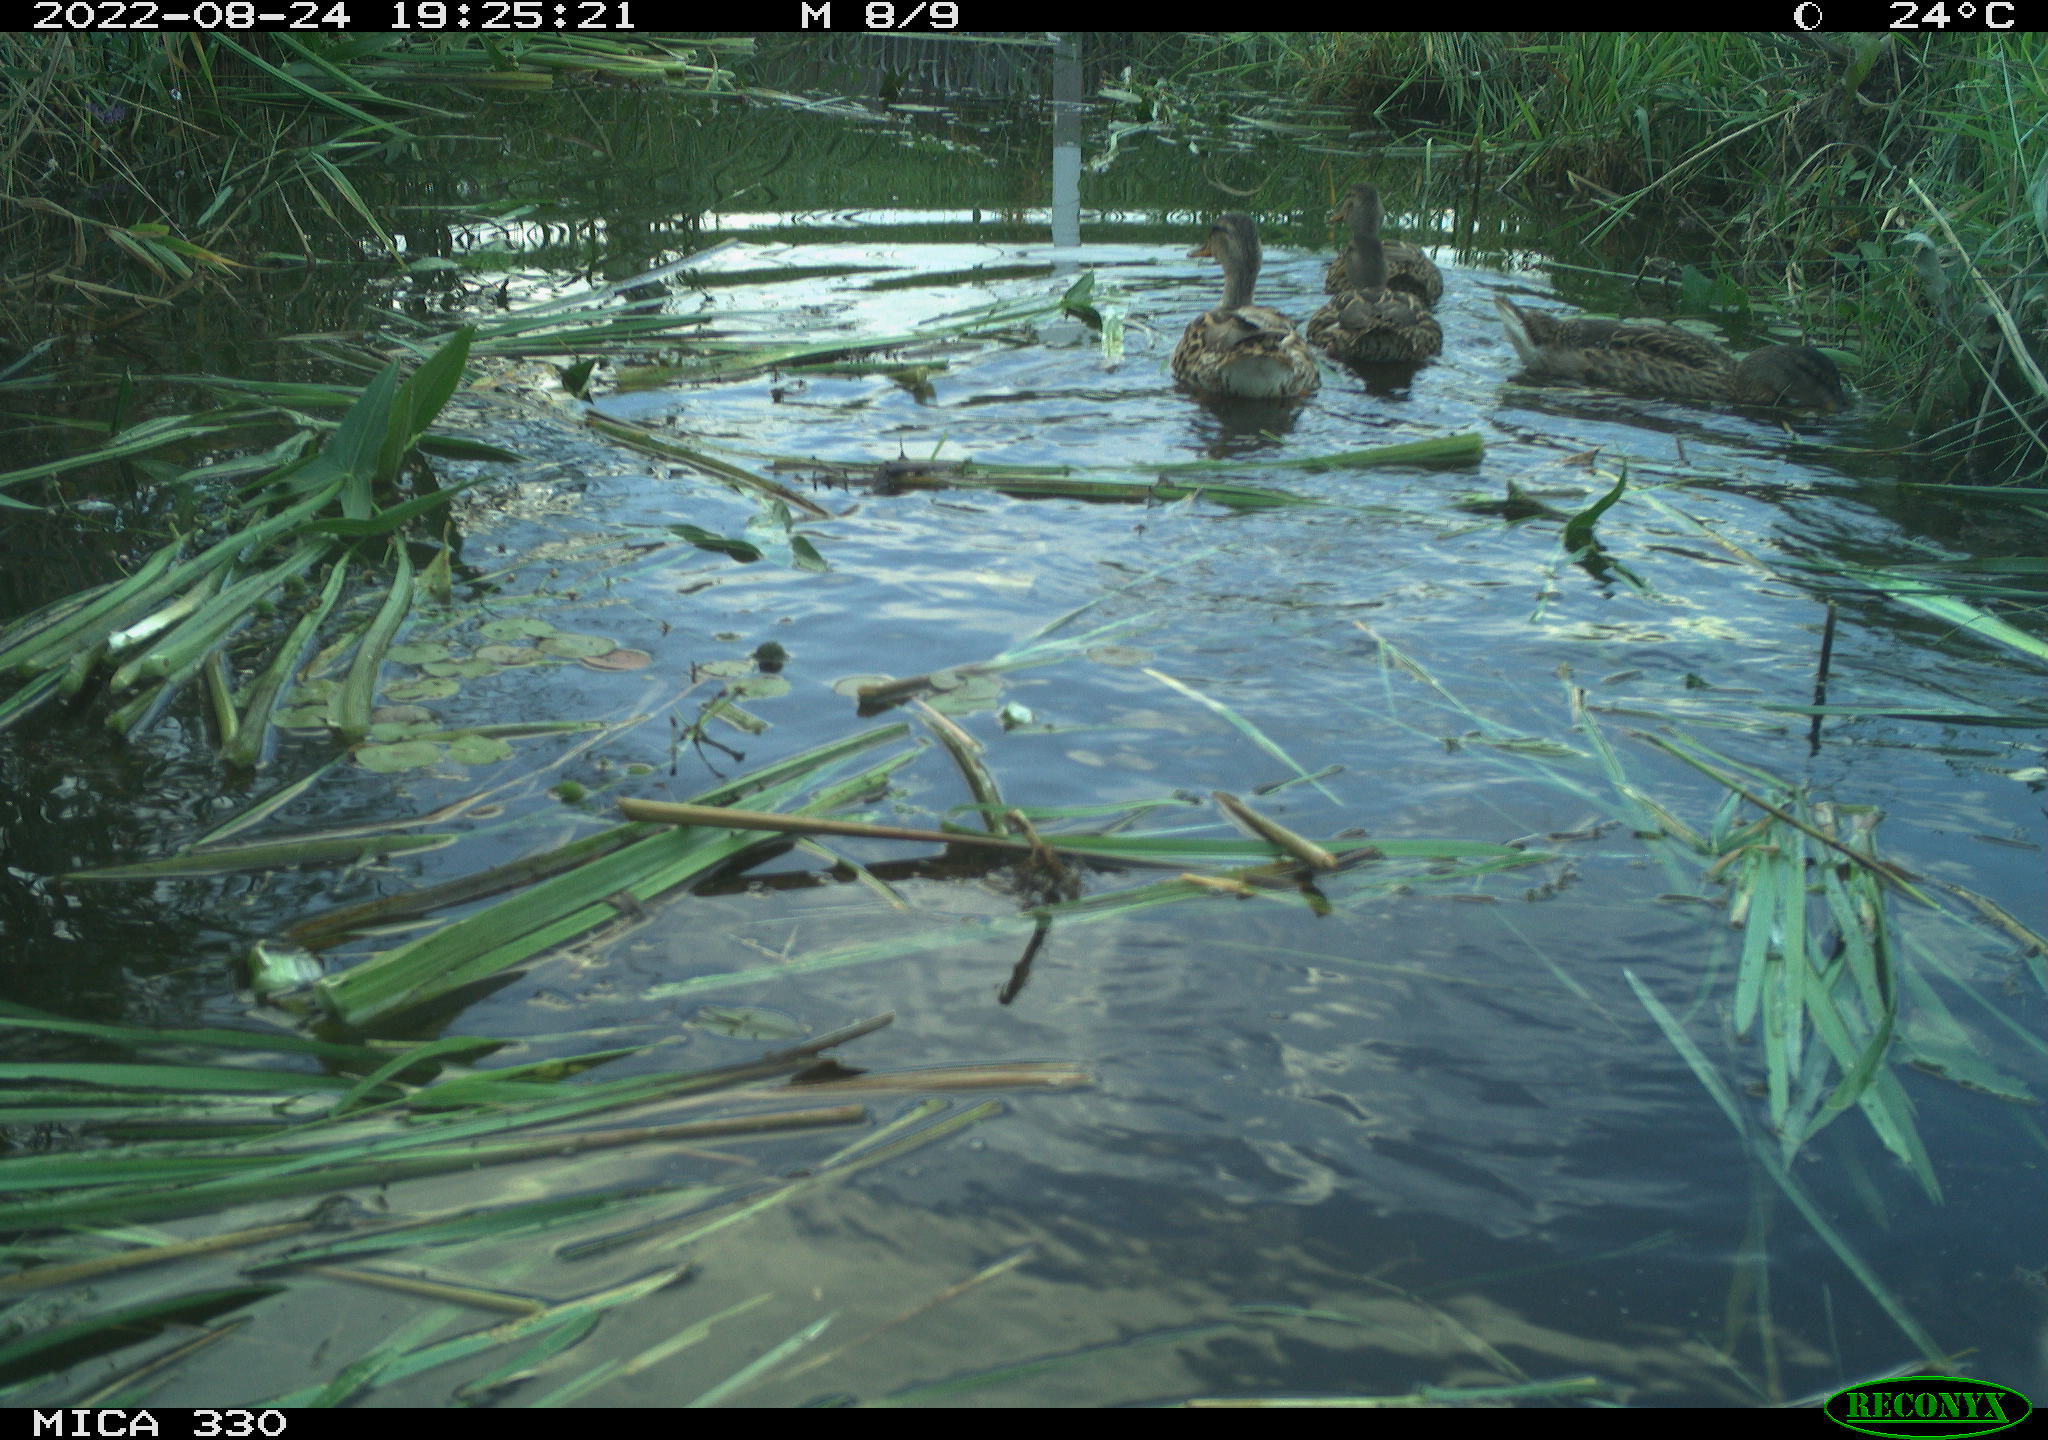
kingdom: Animalia
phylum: Chordata
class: Aves
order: Anseriformes
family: Anatidae
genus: Mareca
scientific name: Mareca strepera
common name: Gadwall
